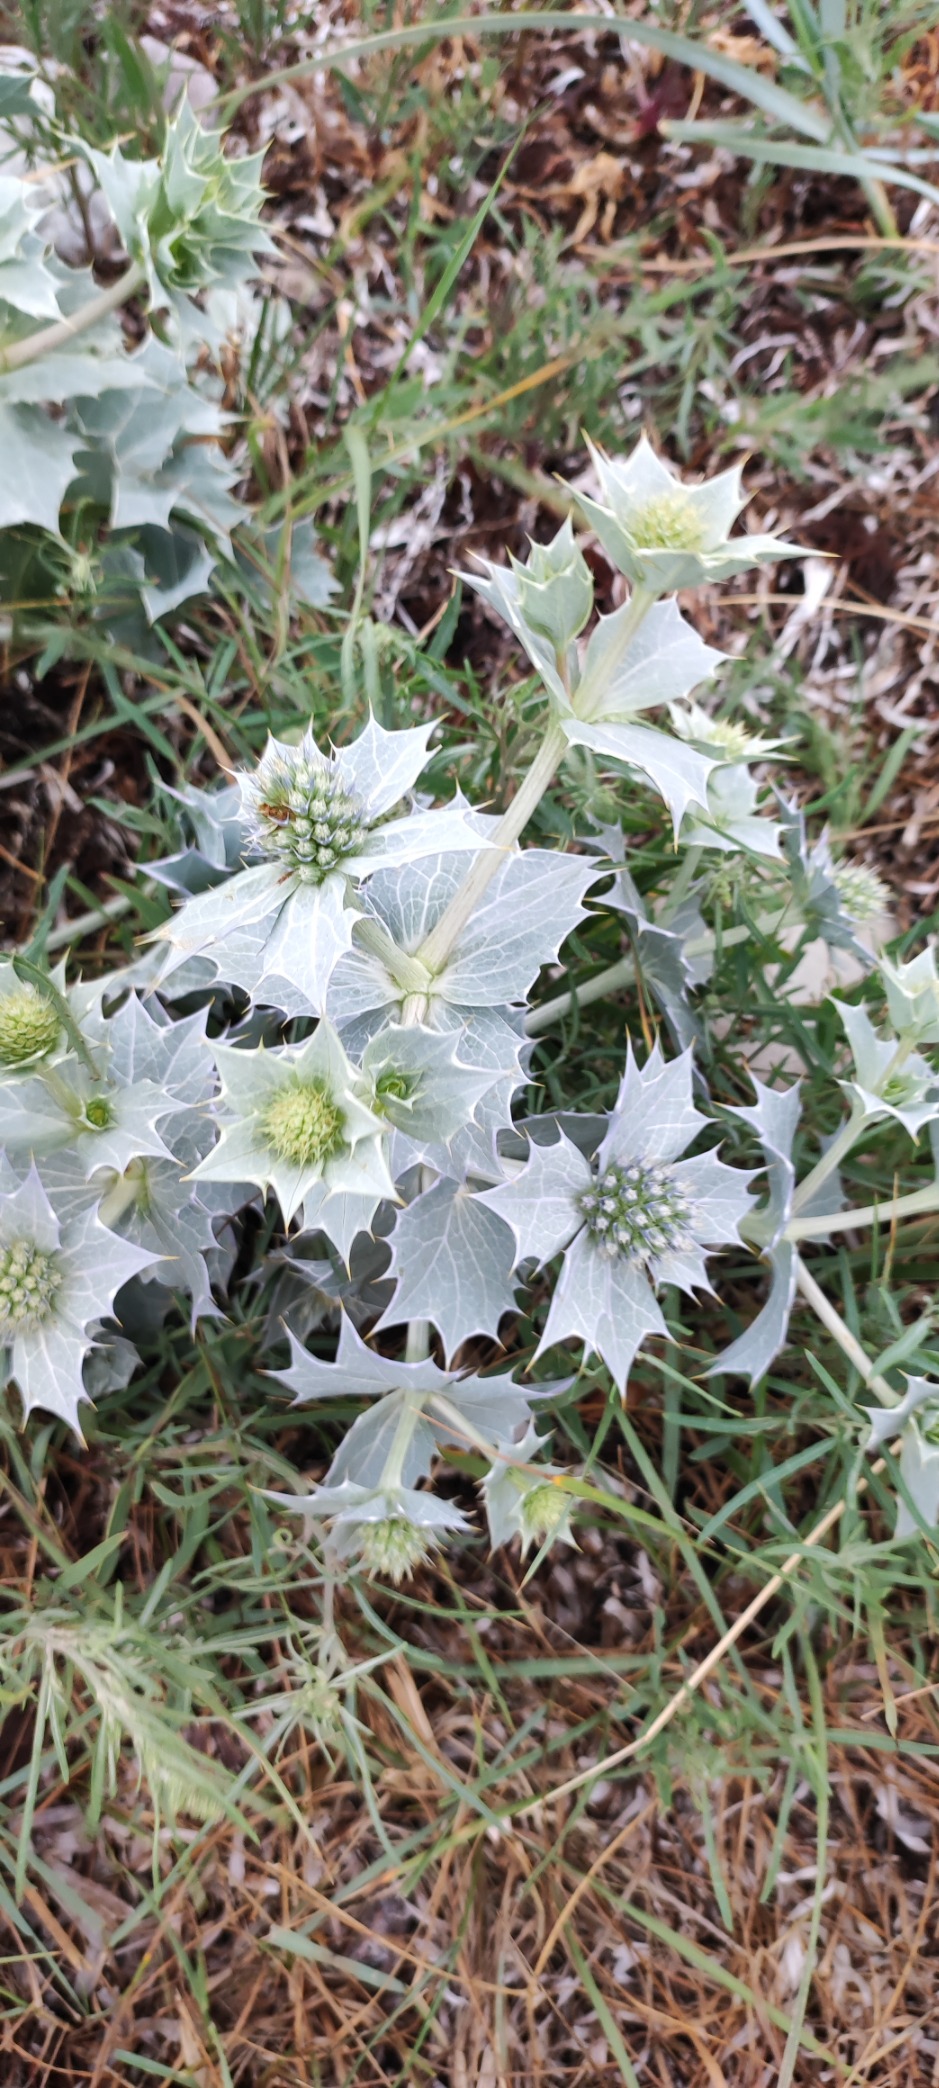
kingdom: Plantae
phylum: Tracheophyta
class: Magnoliopsida
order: Apiales
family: Apiaceae
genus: Eryngium
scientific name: Eryngium maritimum
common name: Strand-mandstro
